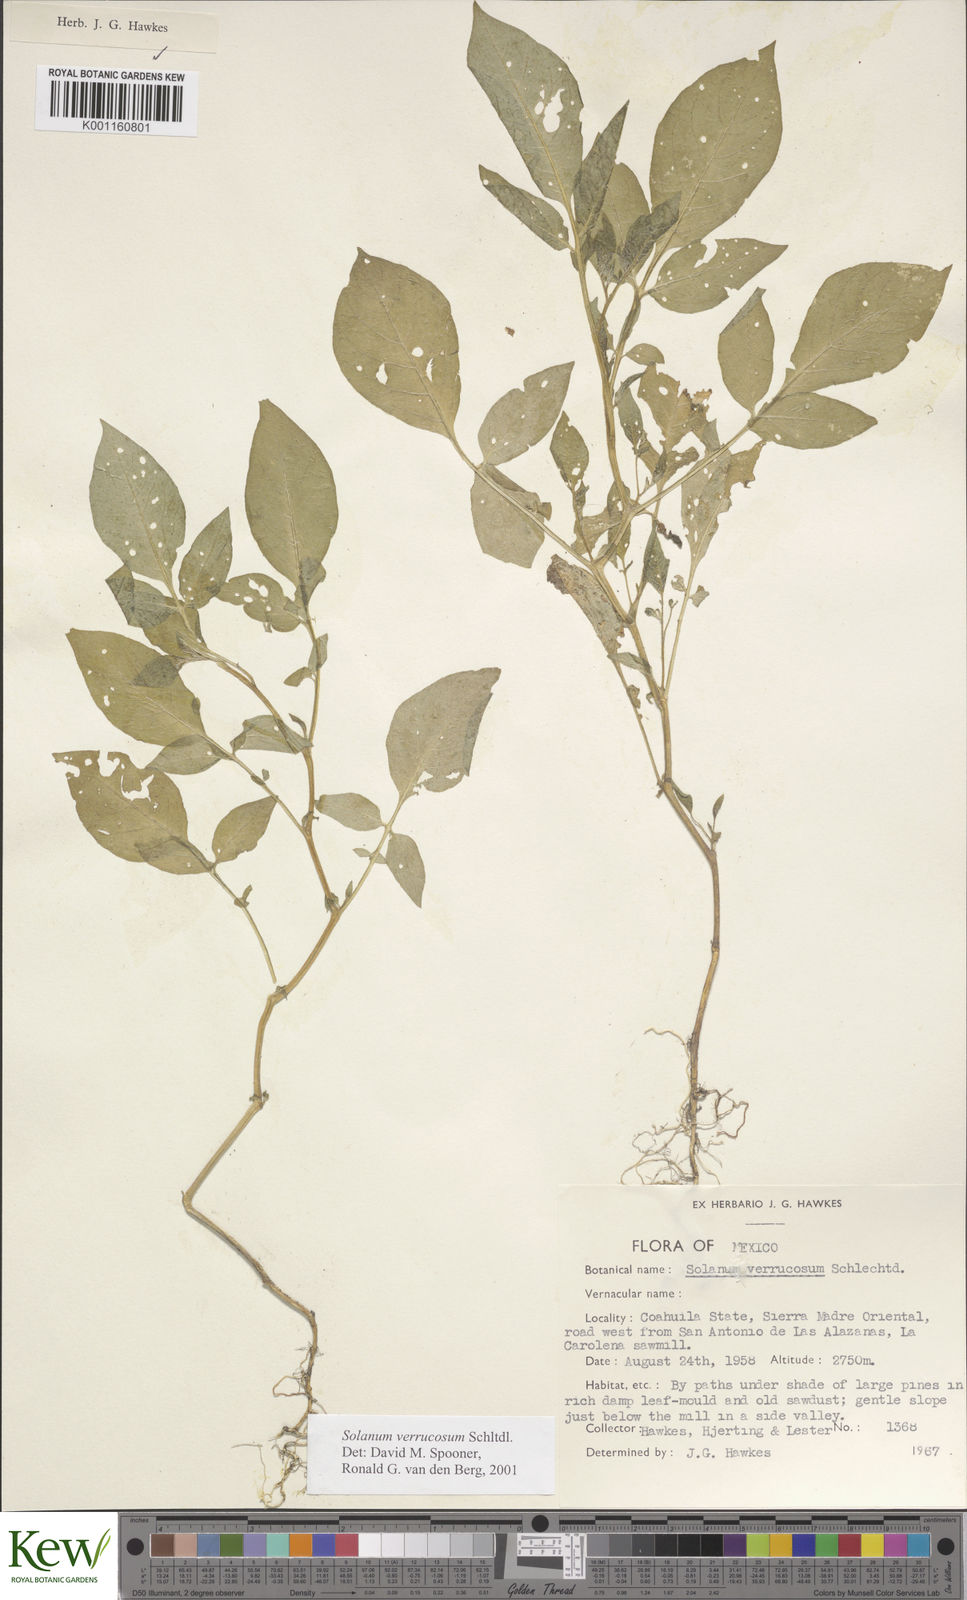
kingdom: Plantae
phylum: Tracheophyta
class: Magnoliopsida
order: Solanales
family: Solanaceae
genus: Solanum
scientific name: Solanum stoloniferum
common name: Fendler's nighshade
